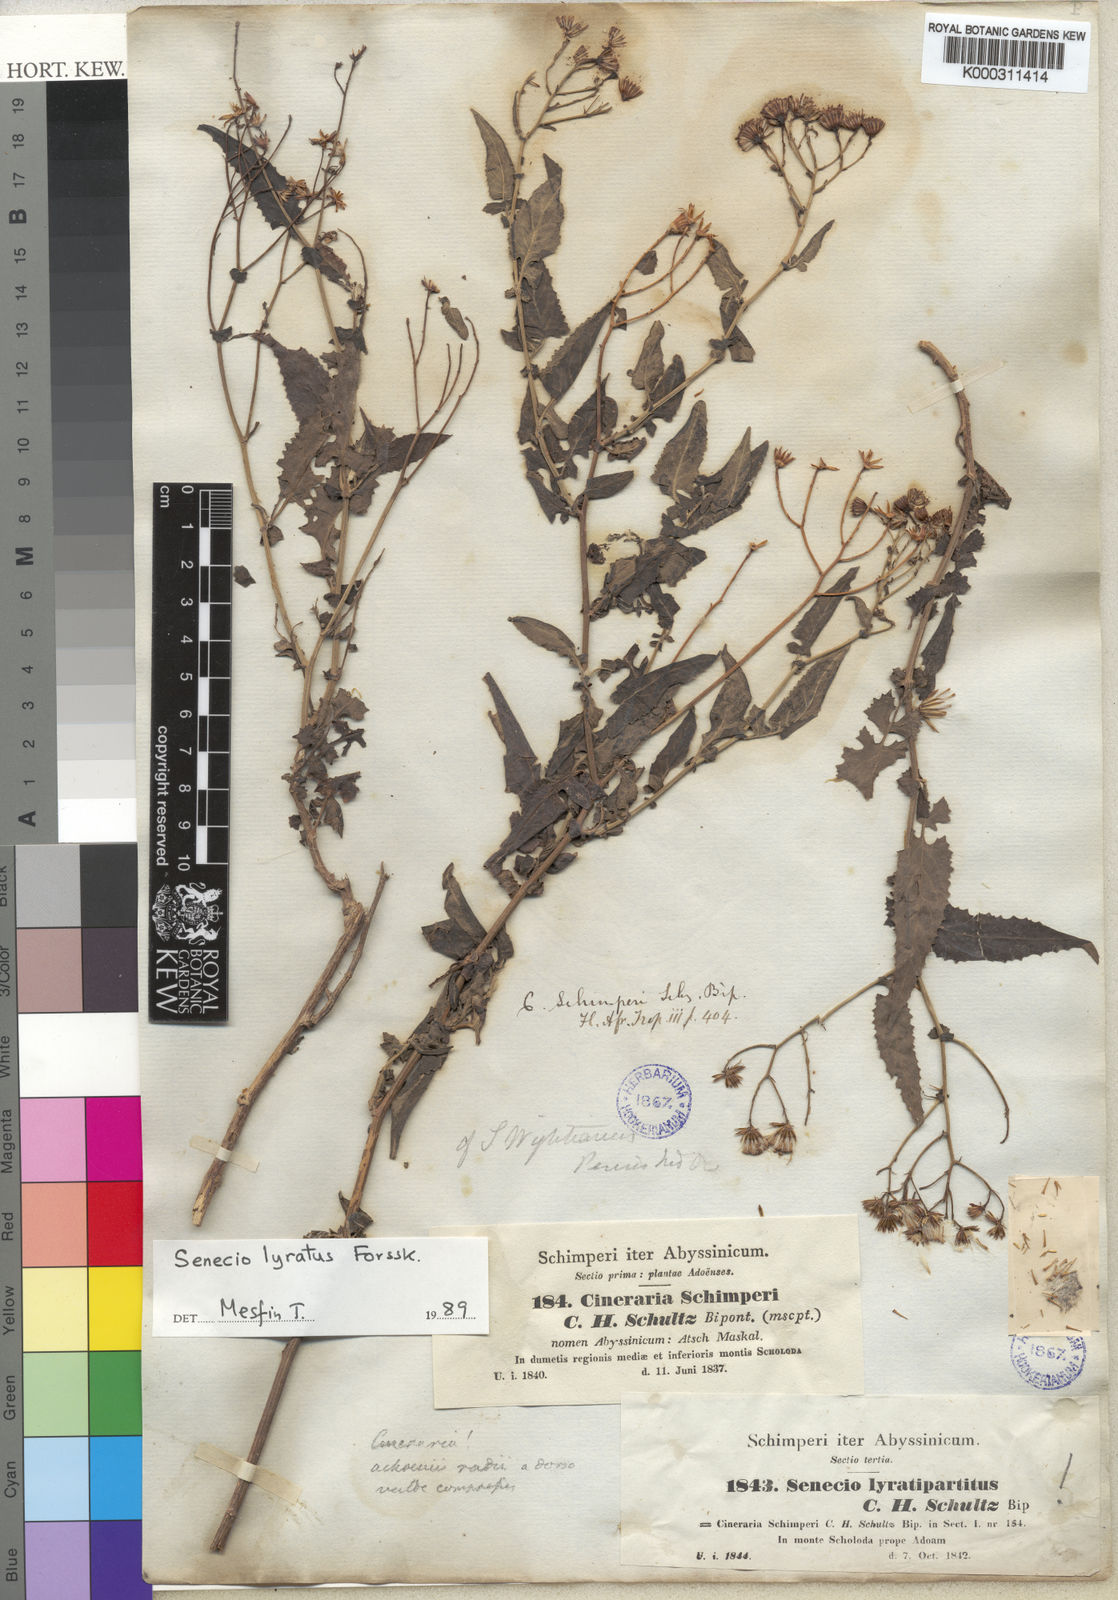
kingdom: Plantae
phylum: Tracheophyta
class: Magnoliopsida
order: Asterales
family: Asteraceae
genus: Senecio
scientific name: Senecio lyratus
